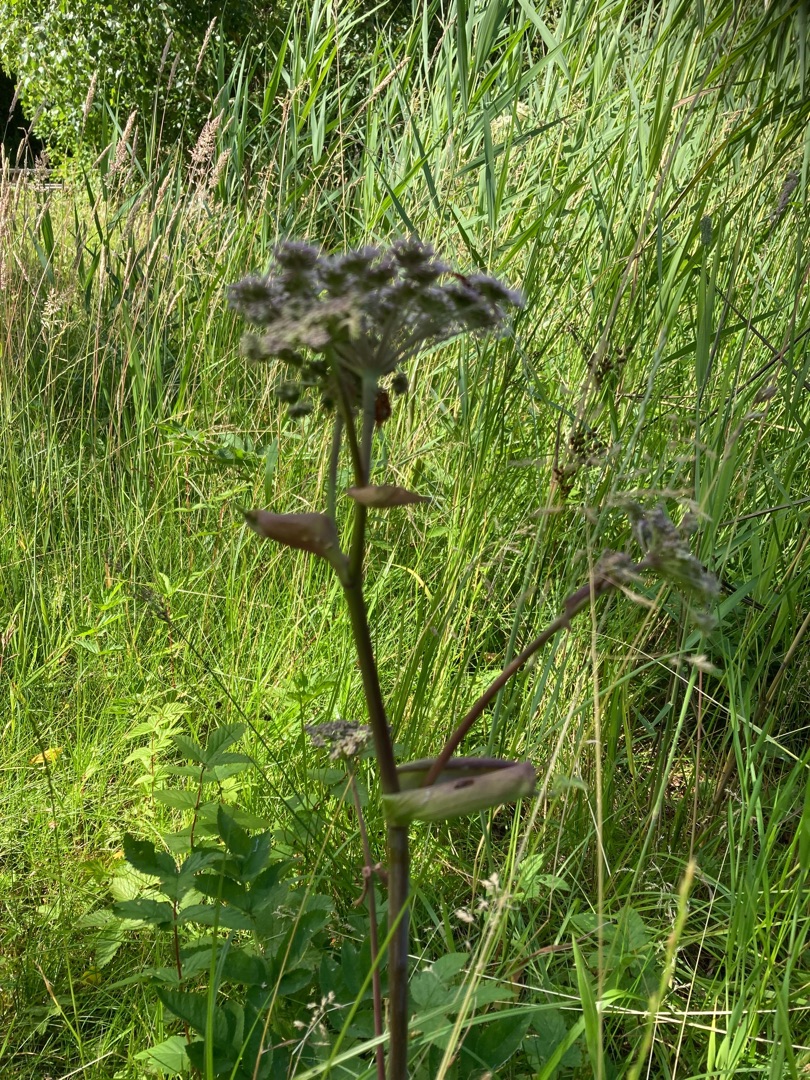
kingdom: Plantae
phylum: Tracheophyta
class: Magnoliopsida
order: Apiales
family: Apiaceae
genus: Angelica
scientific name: Angelica sylvestris
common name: Angelik
